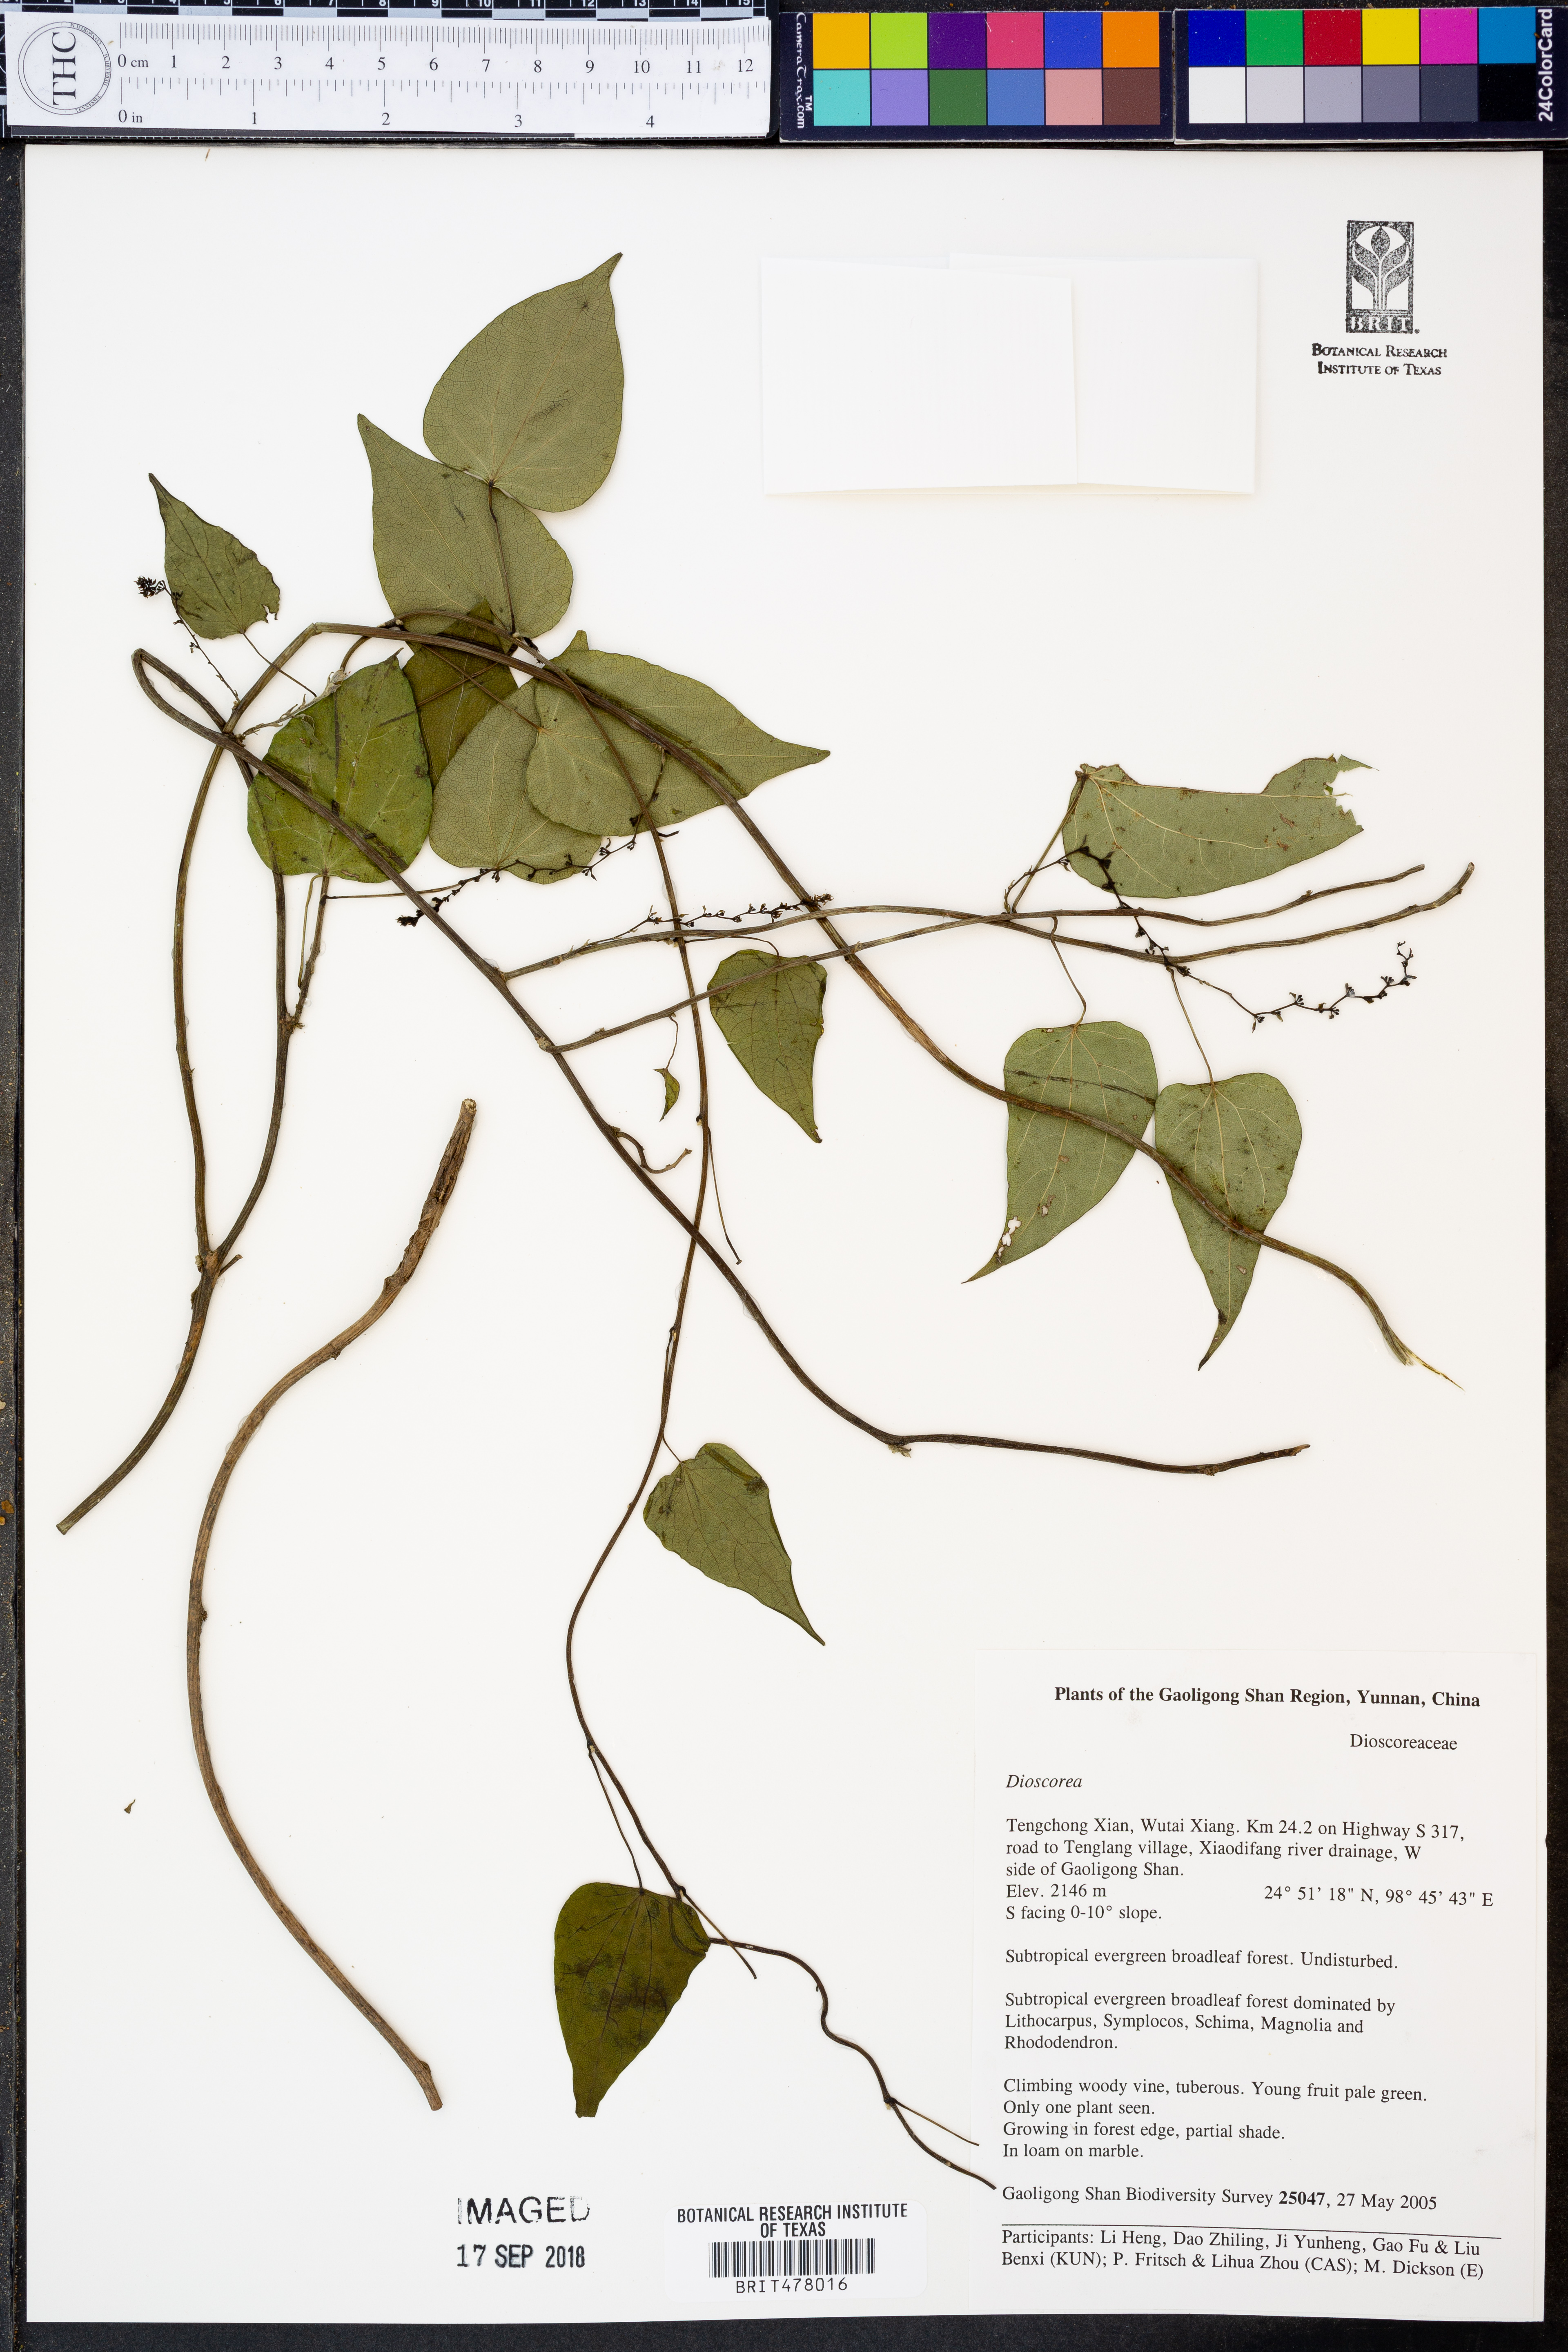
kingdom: Plantae
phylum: Tracheophyta
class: Liliopsida
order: Dioscoreales
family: Dioscoreaceae
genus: Dioscorea
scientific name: Dioscorea
